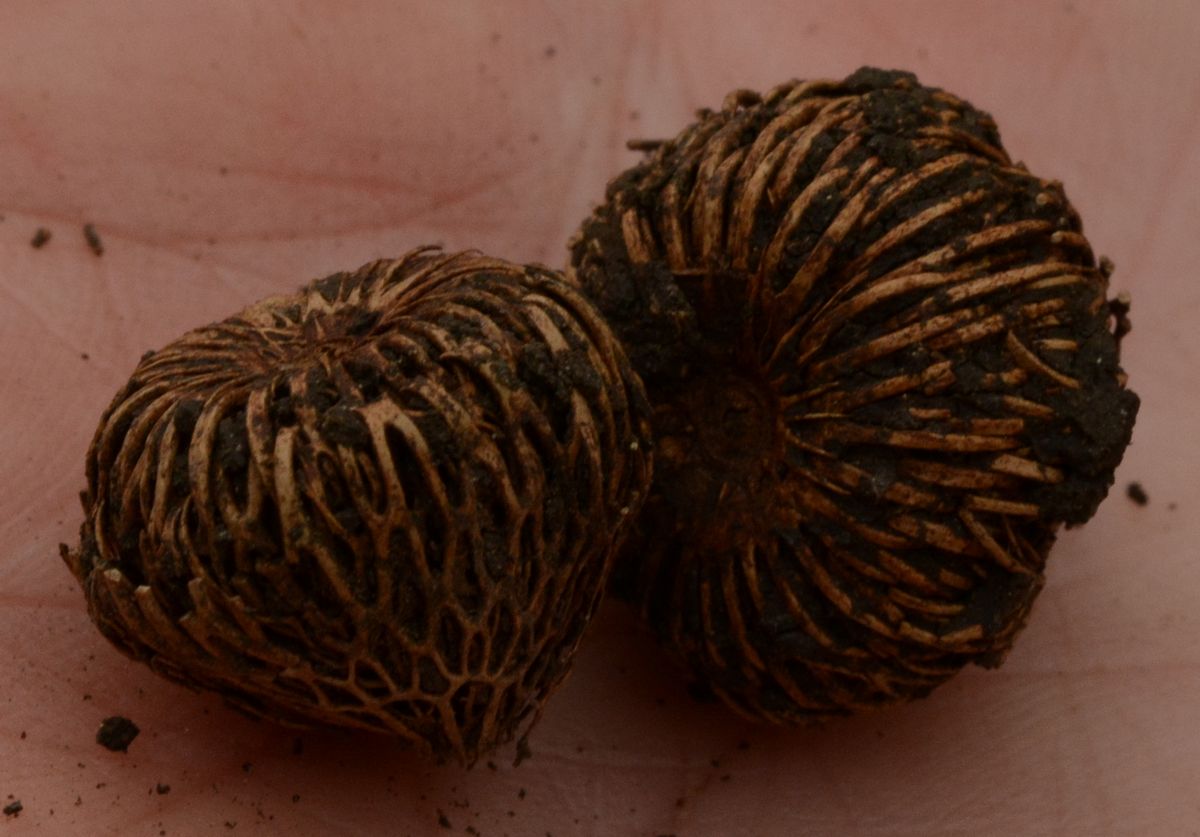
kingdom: Plantae
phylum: Tracheophyta
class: Liliopsida
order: Asparagales
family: Iridaceae
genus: Crocus
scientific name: Crocus reticulatus
